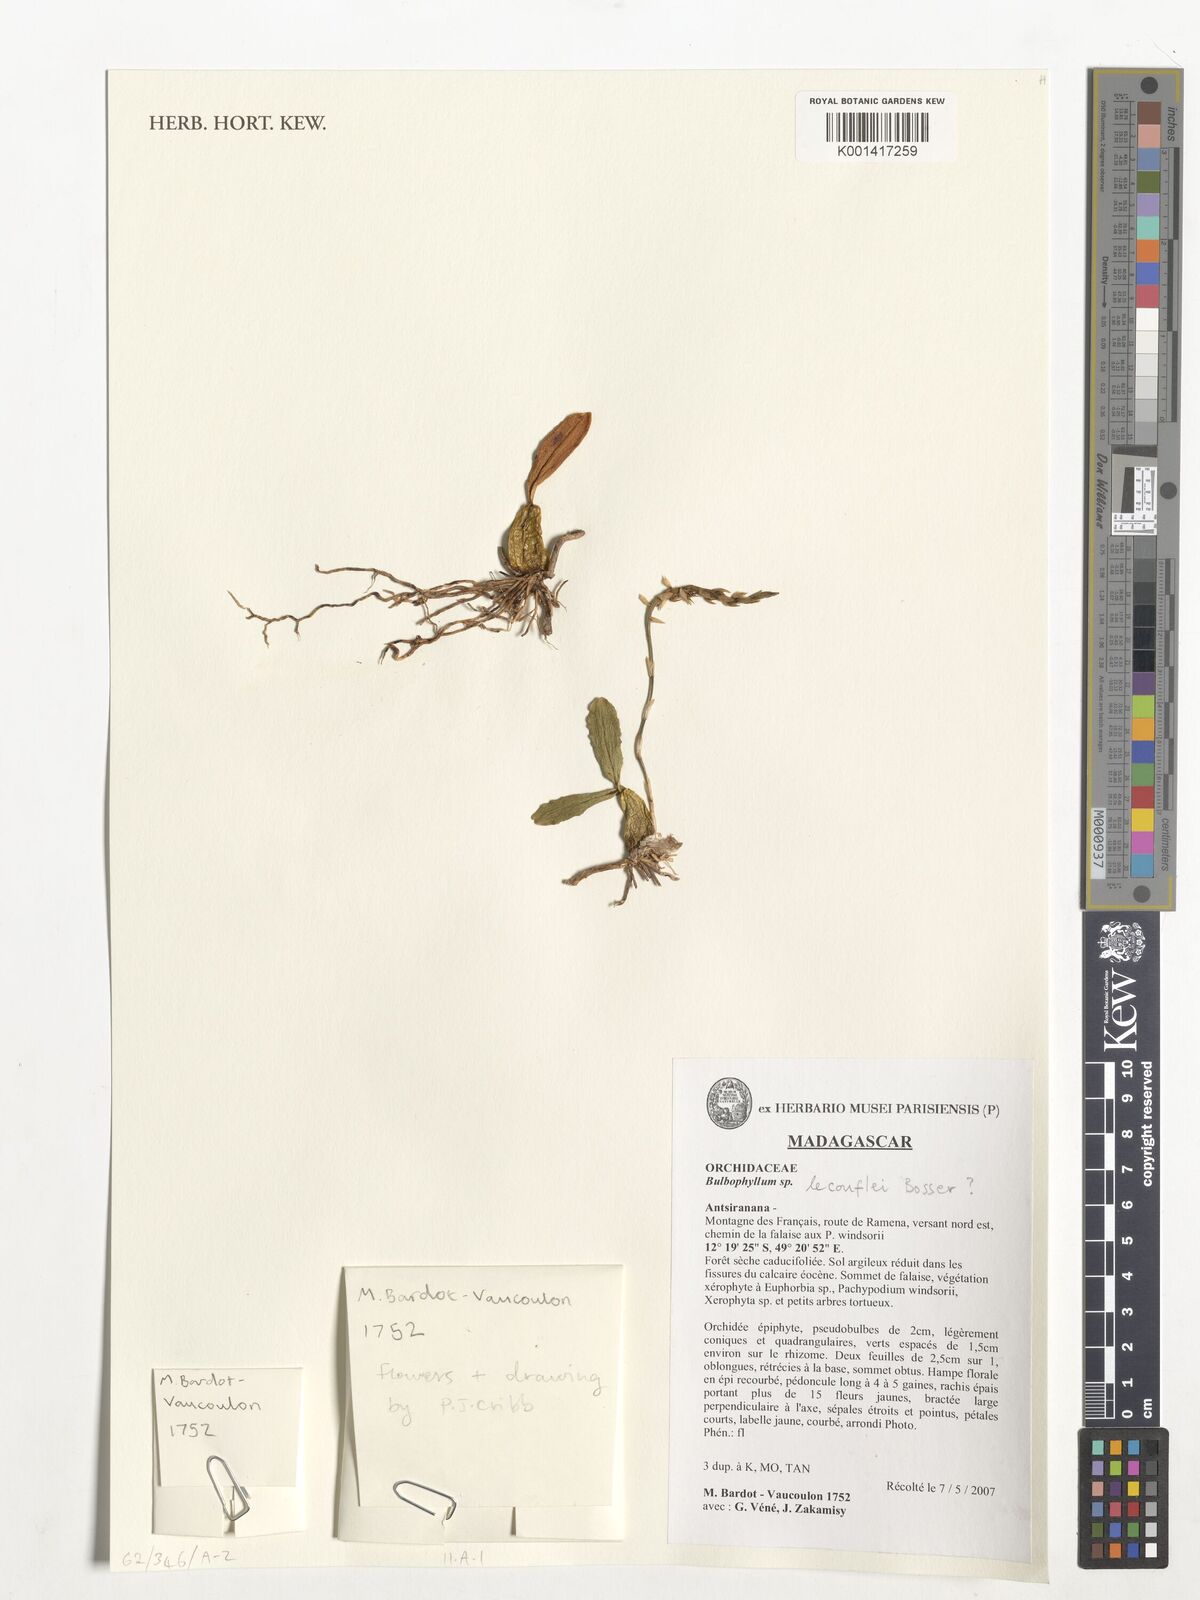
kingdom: Plantae
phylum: Tracheophyta
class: Liliopsida
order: Asparagales
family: Orchidaceae
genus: Bulbophyllum
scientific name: Bulbophyllum lecouflei
